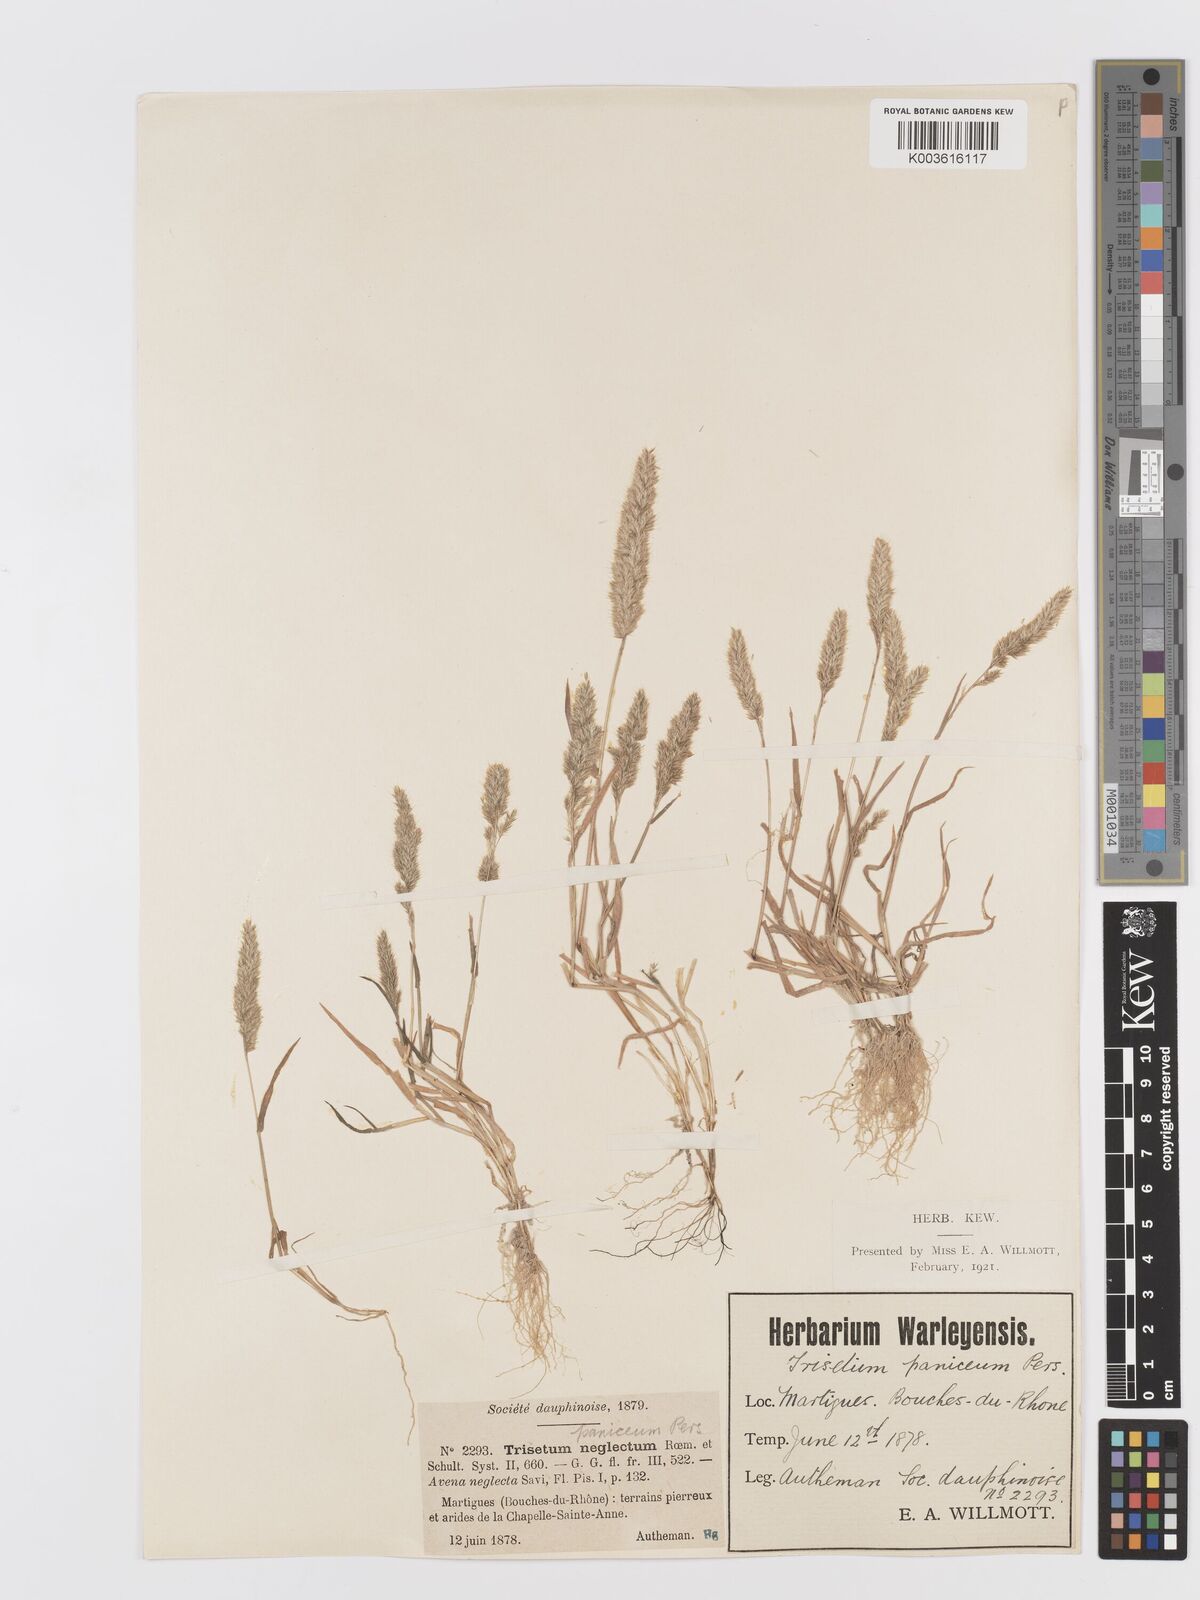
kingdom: Plantae
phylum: Tracheophyta
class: Liliopsida
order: Poales
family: Poaceae
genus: Trisetaria
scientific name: Trisetaria panicea
